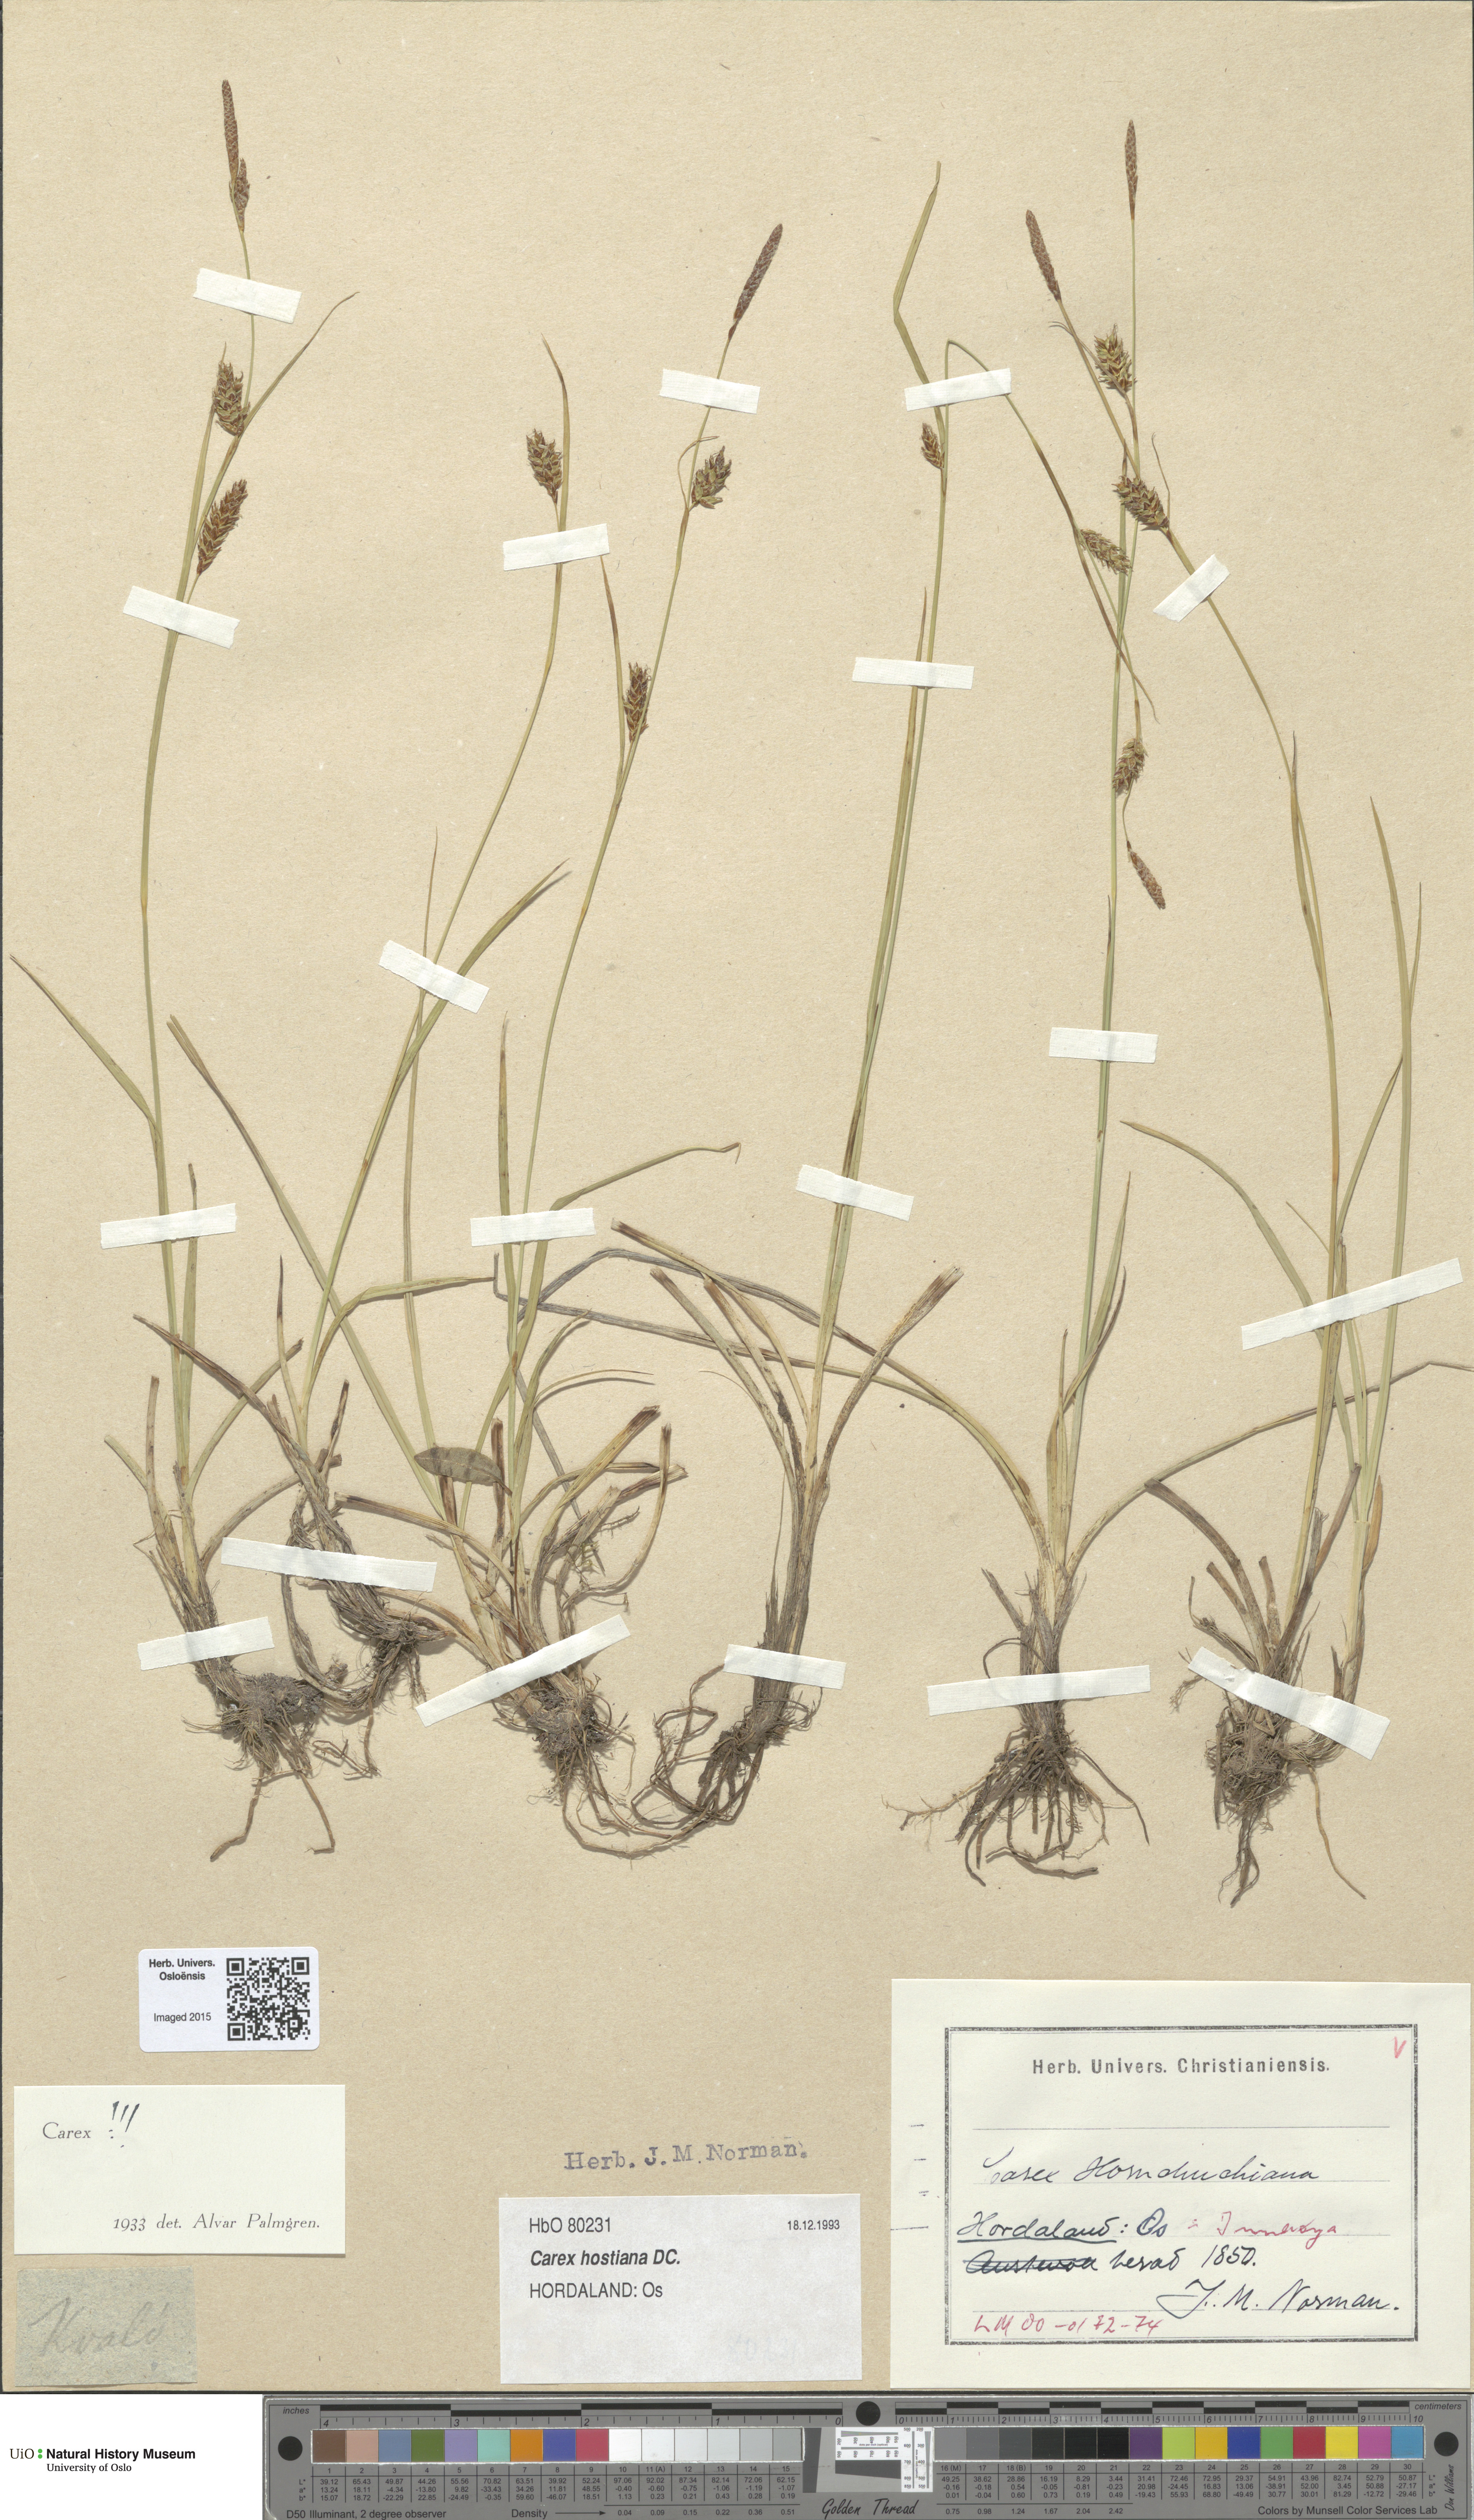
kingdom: Plantae
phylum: Tracheophyta
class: Liliopsida
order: Poales
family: Cyperaceae
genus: Carex
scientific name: Carex hostiana
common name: Tawny sedge
